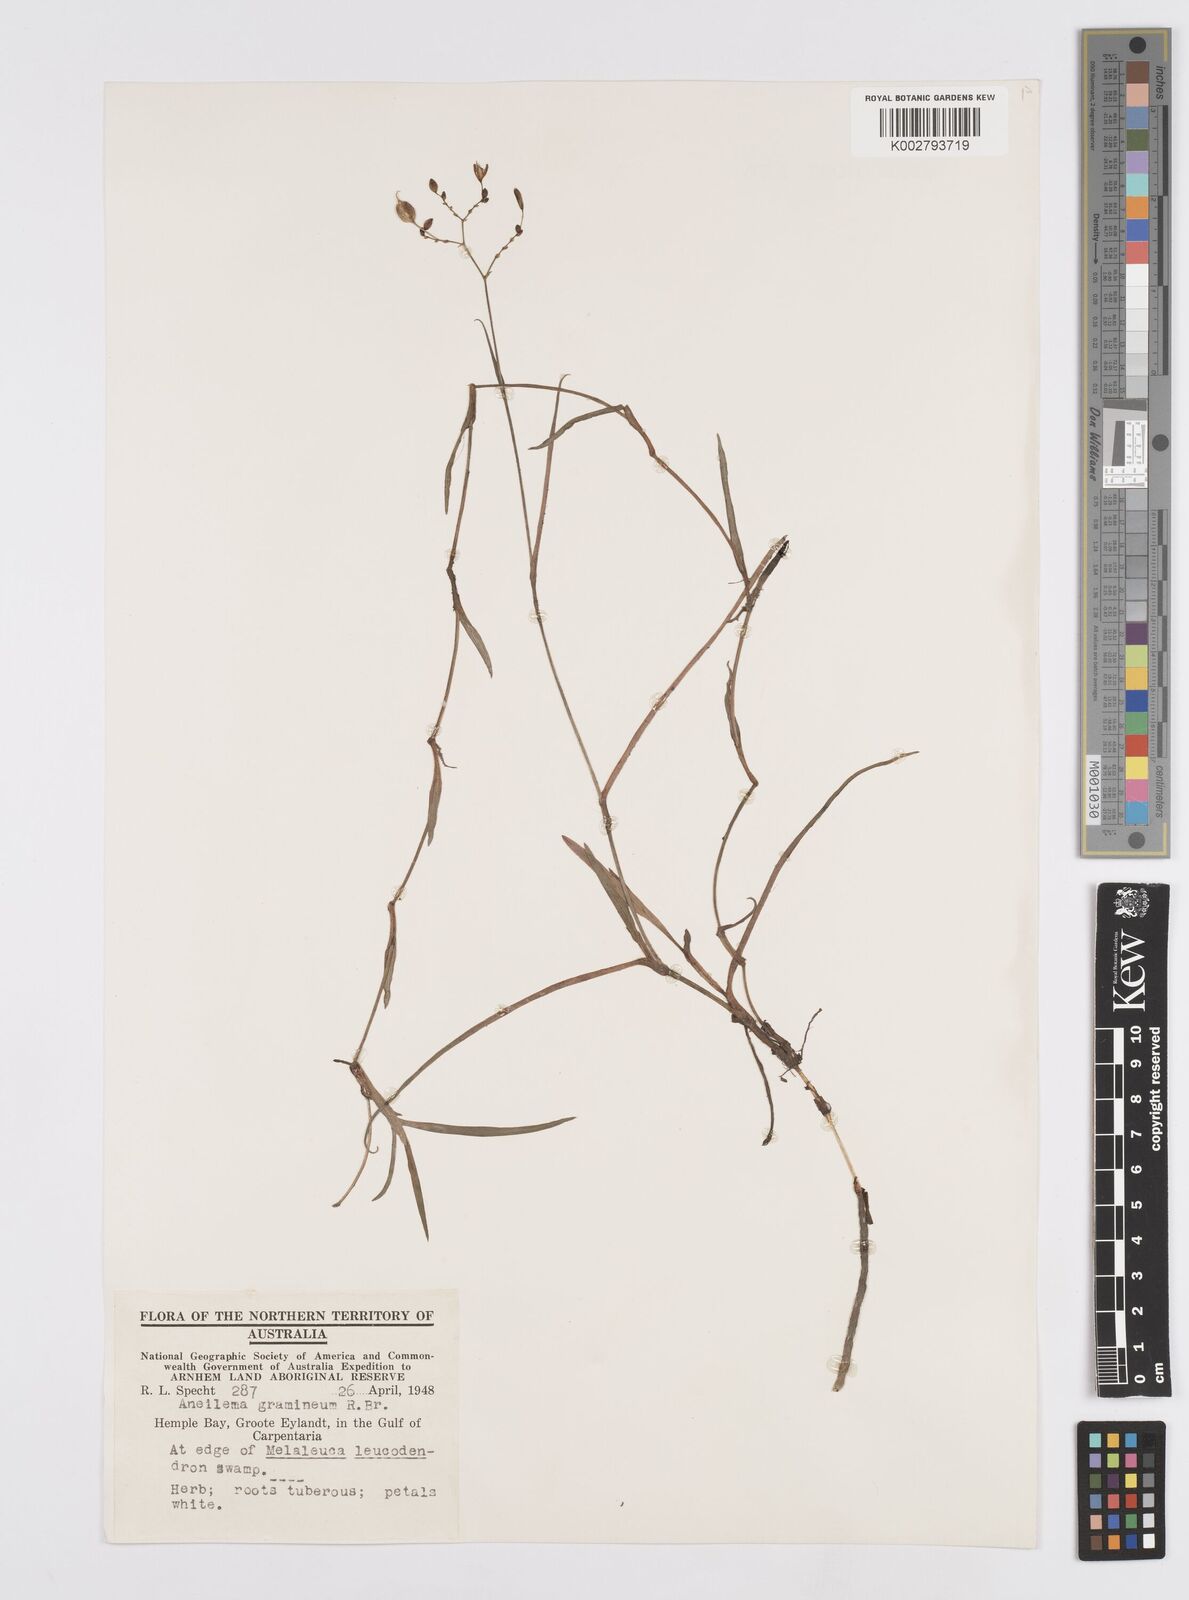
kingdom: Plantae
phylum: Tracheophyta
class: Liliopsida
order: Commelinales
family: Commelinaceae
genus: Murdannia
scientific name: Murdannia graminea
